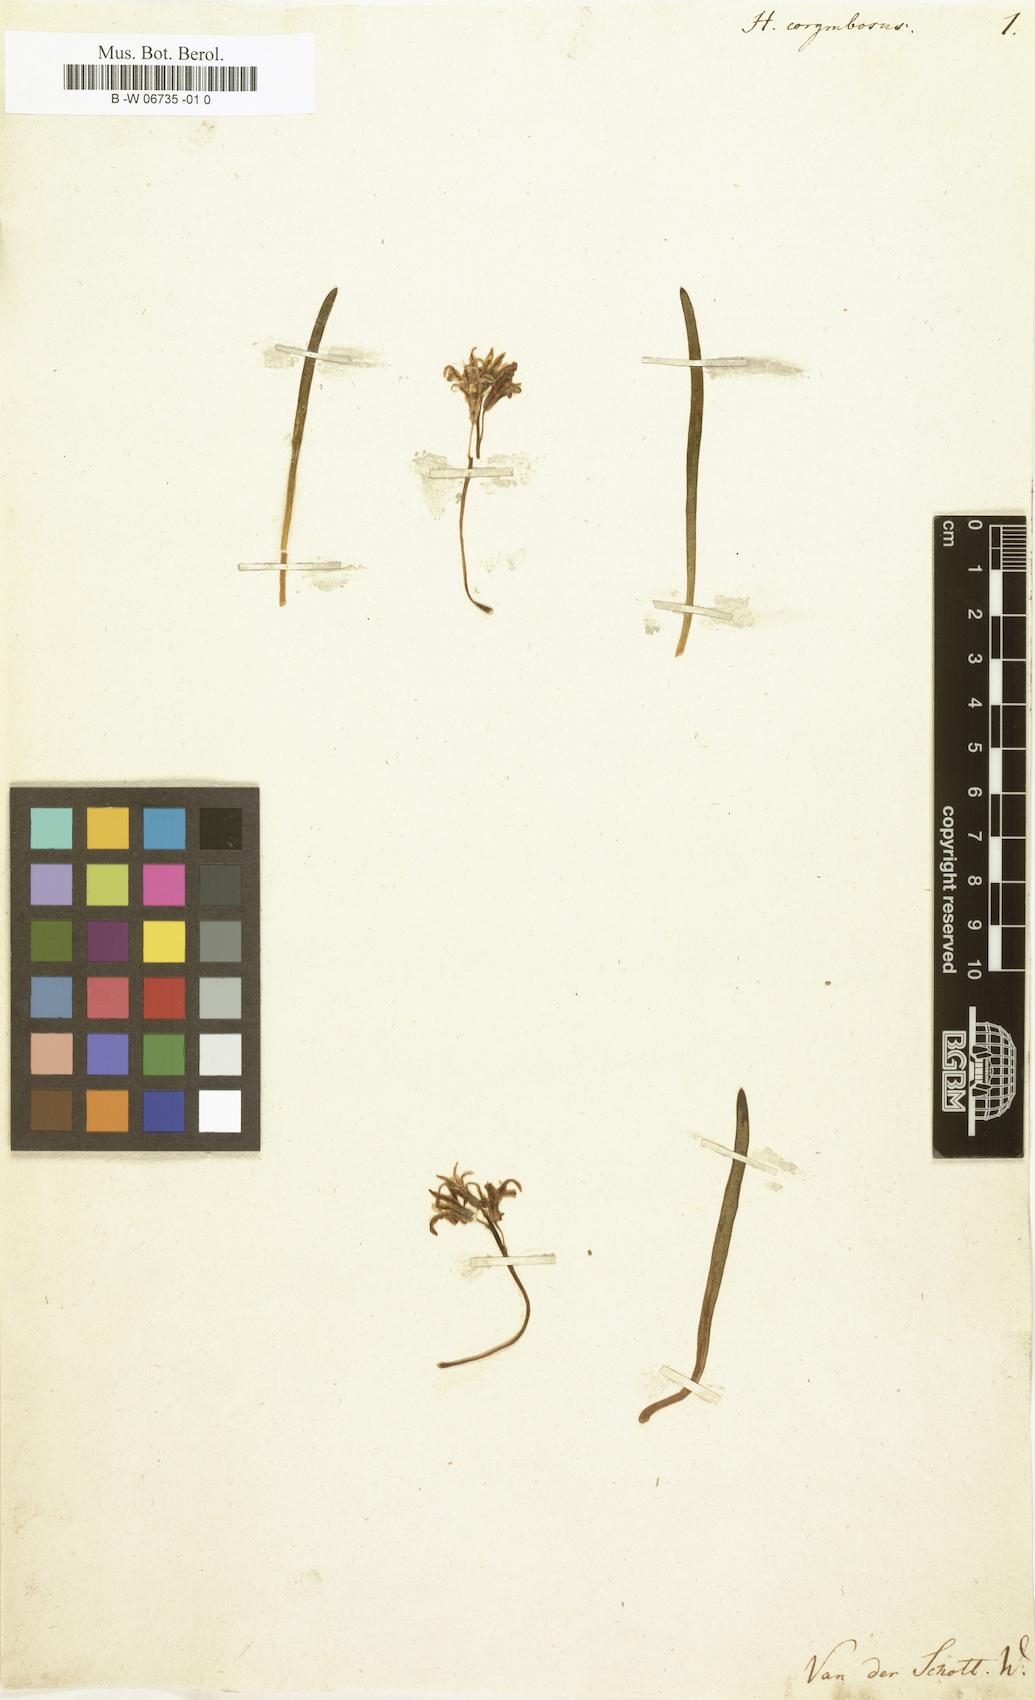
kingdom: Plantae
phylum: Tracheophyta
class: Liliopsida
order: Asparagales
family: Asparagaceae
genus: Lachenalia
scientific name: Lachenalia corymbosa
